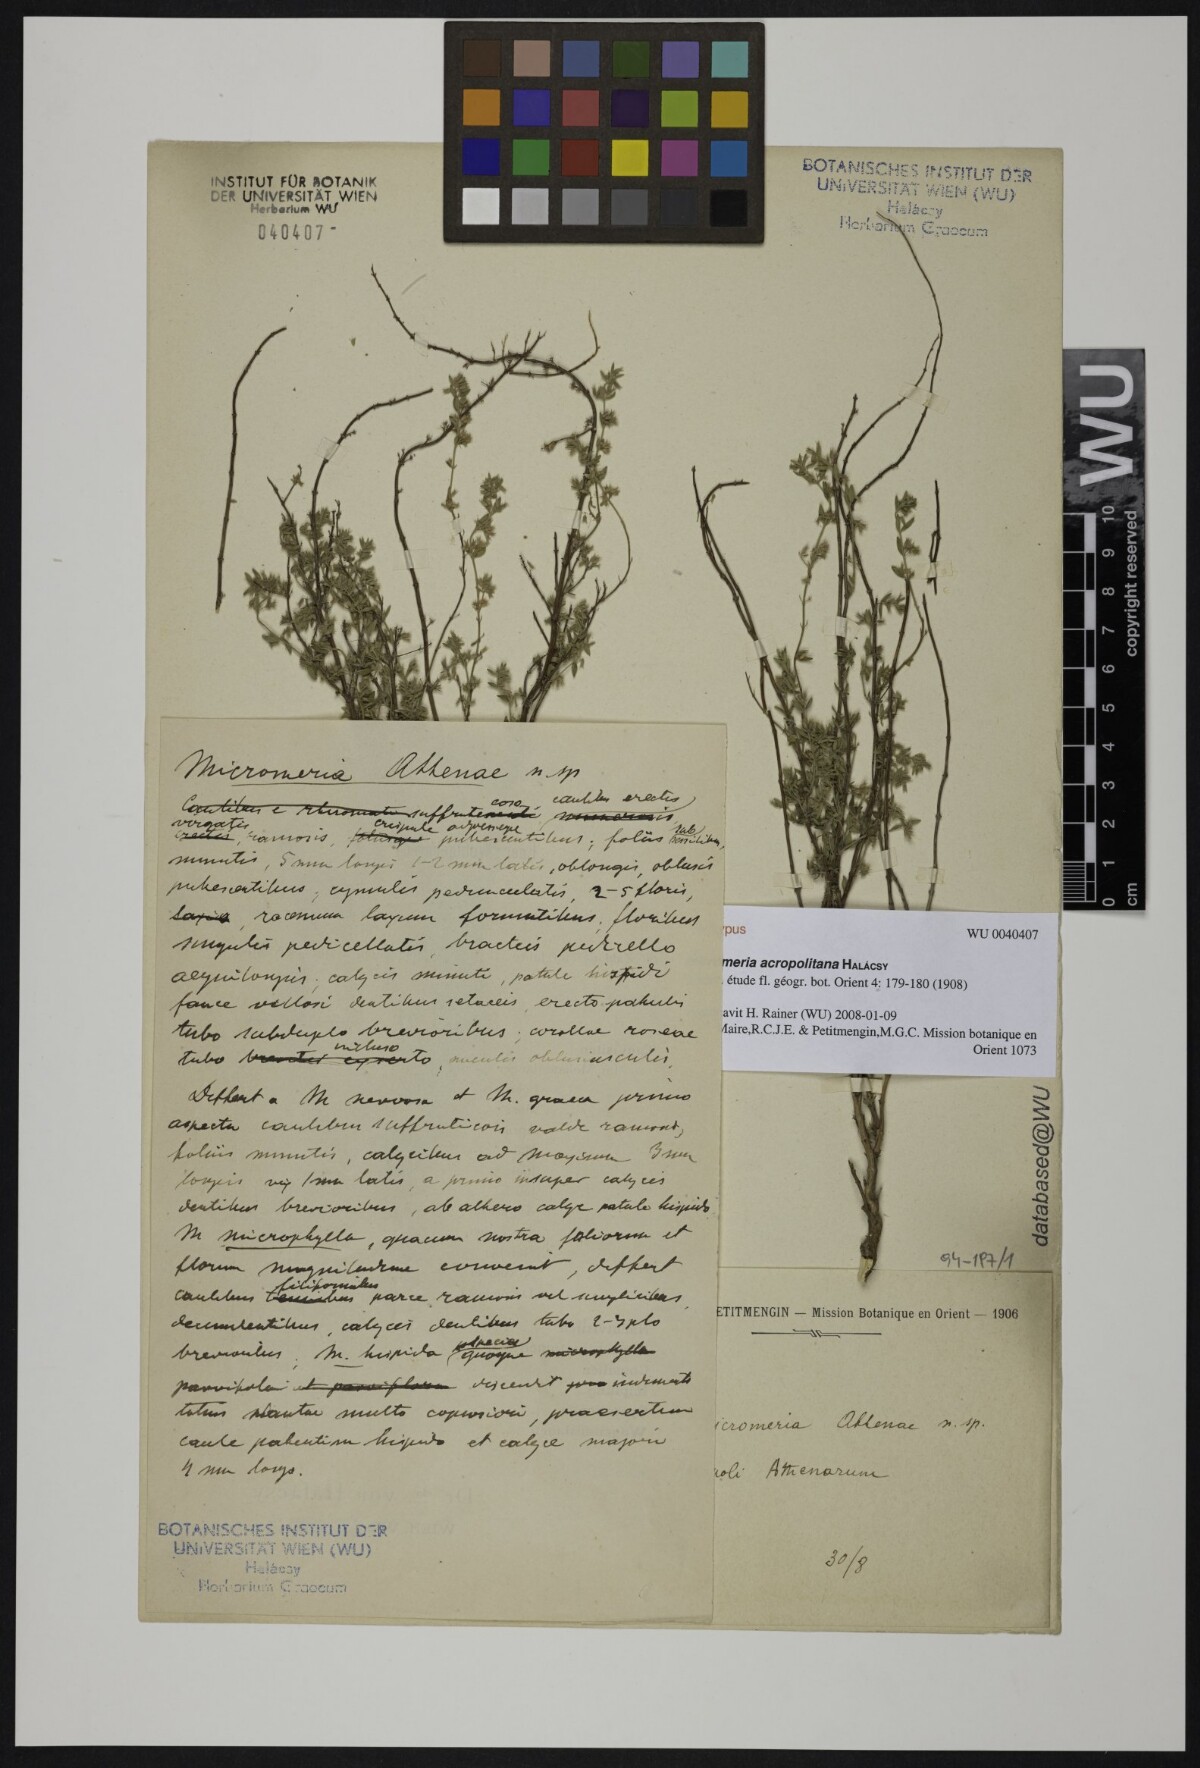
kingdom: Plantae
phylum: Tracheophyta
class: Magnoliopsida
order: Lamiales
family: Lamiaceae
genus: Micromeria
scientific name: Micromeria acropolitana
